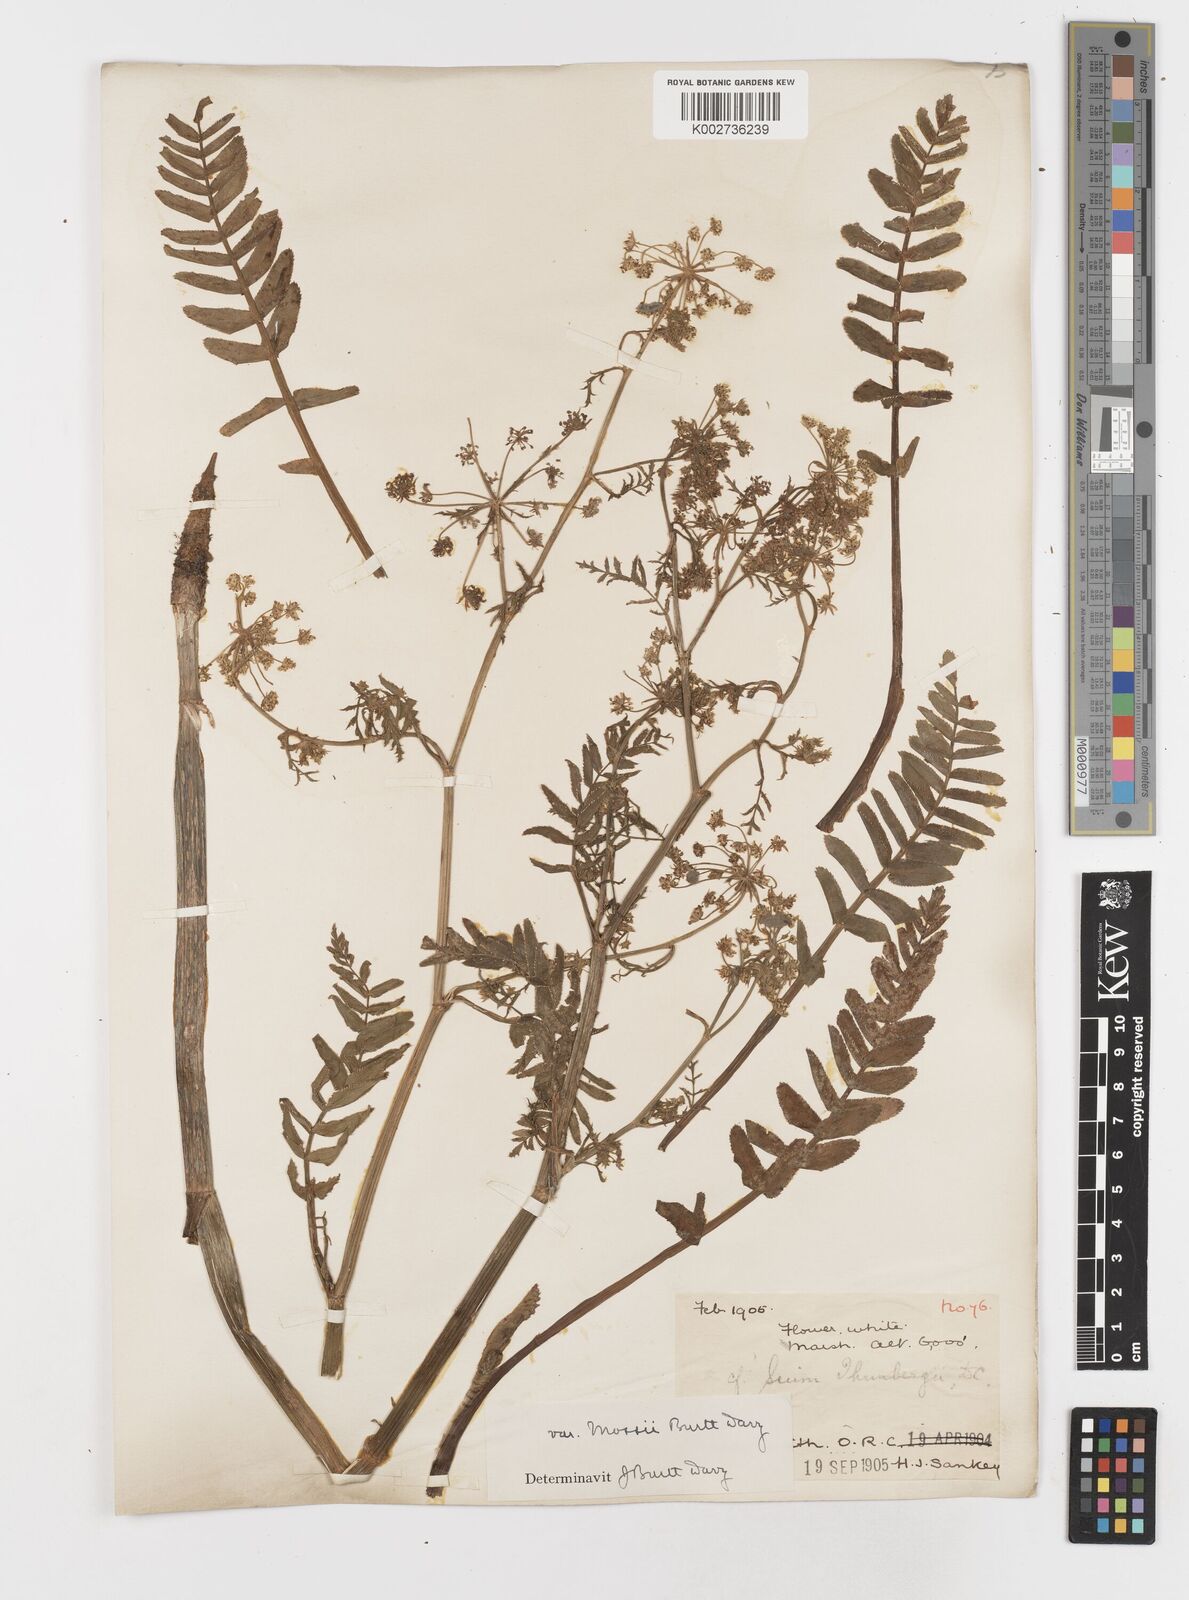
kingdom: Plantae
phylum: Tracheophyta
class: Magnoliopsida
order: Apiales
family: Apiaceae
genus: Berula
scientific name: Berula erecta
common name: Lesser water-parsnip
